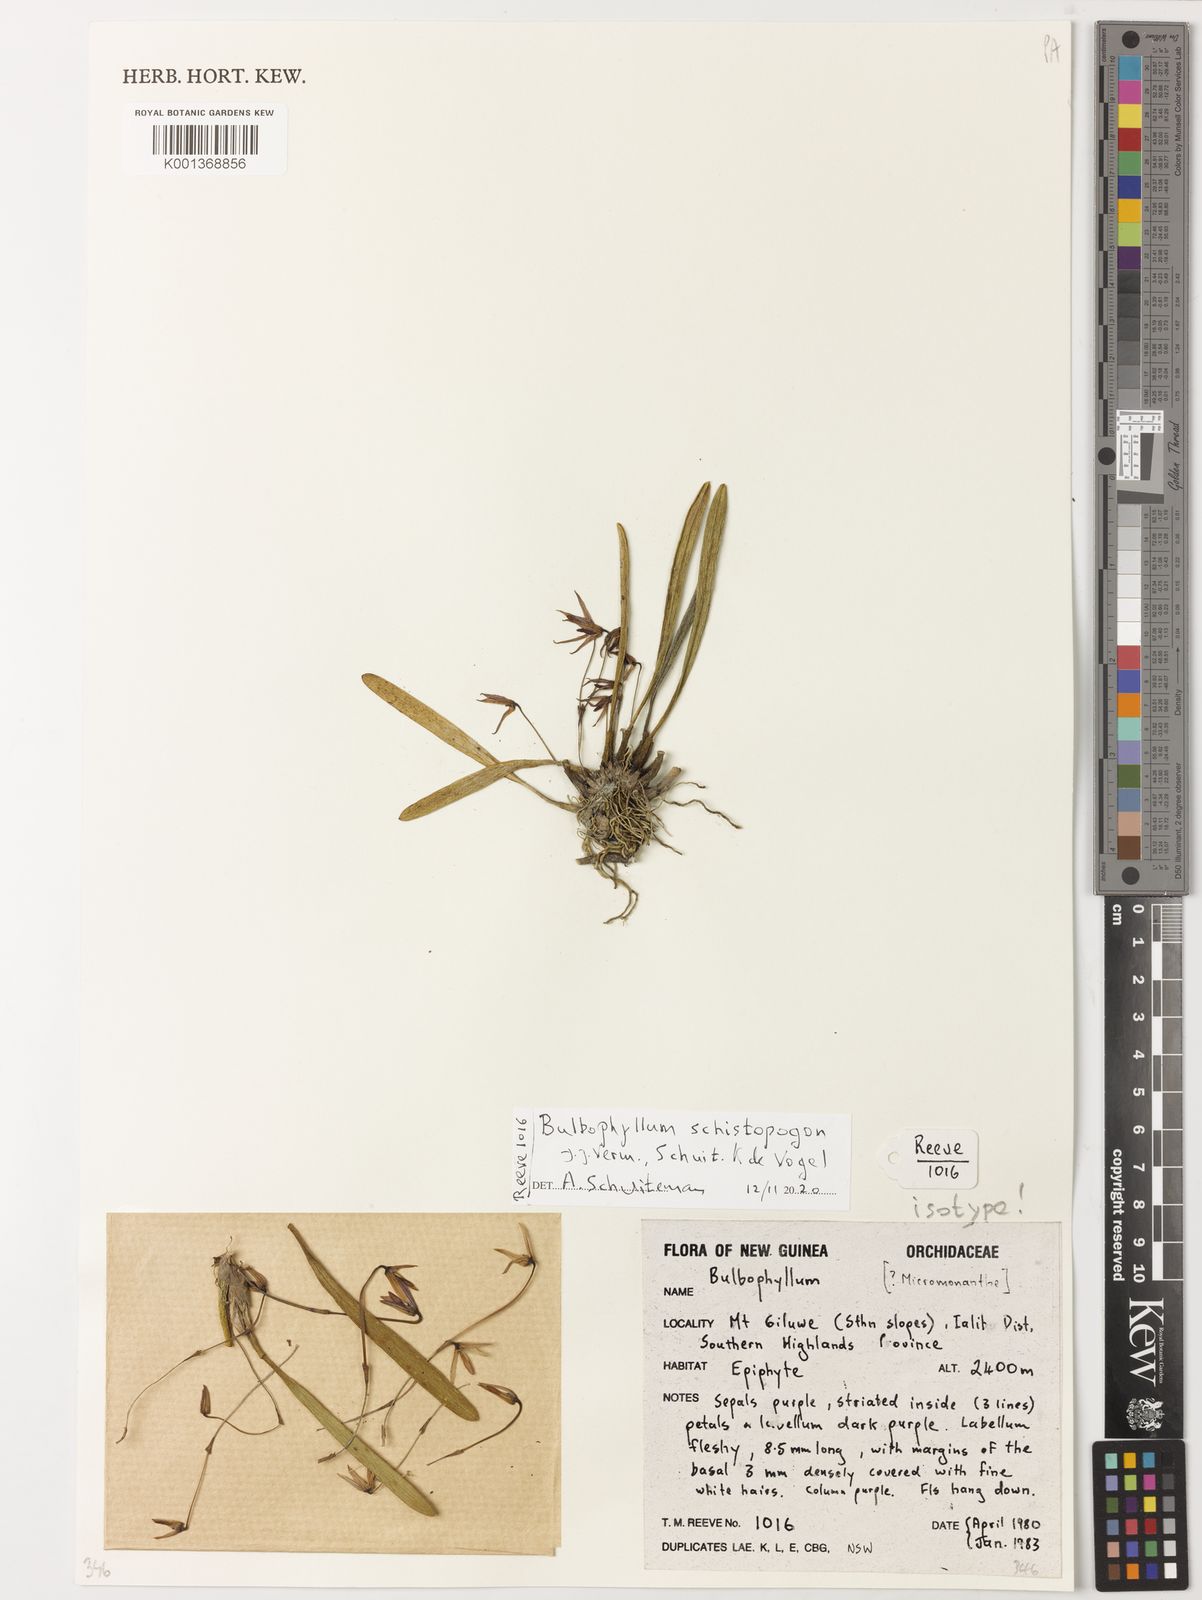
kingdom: Plantae
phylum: Tracheophyta
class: Liliopsida
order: Asparagales
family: Orchidaceae
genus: Bulbophyllum
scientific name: Bulbophyllum
